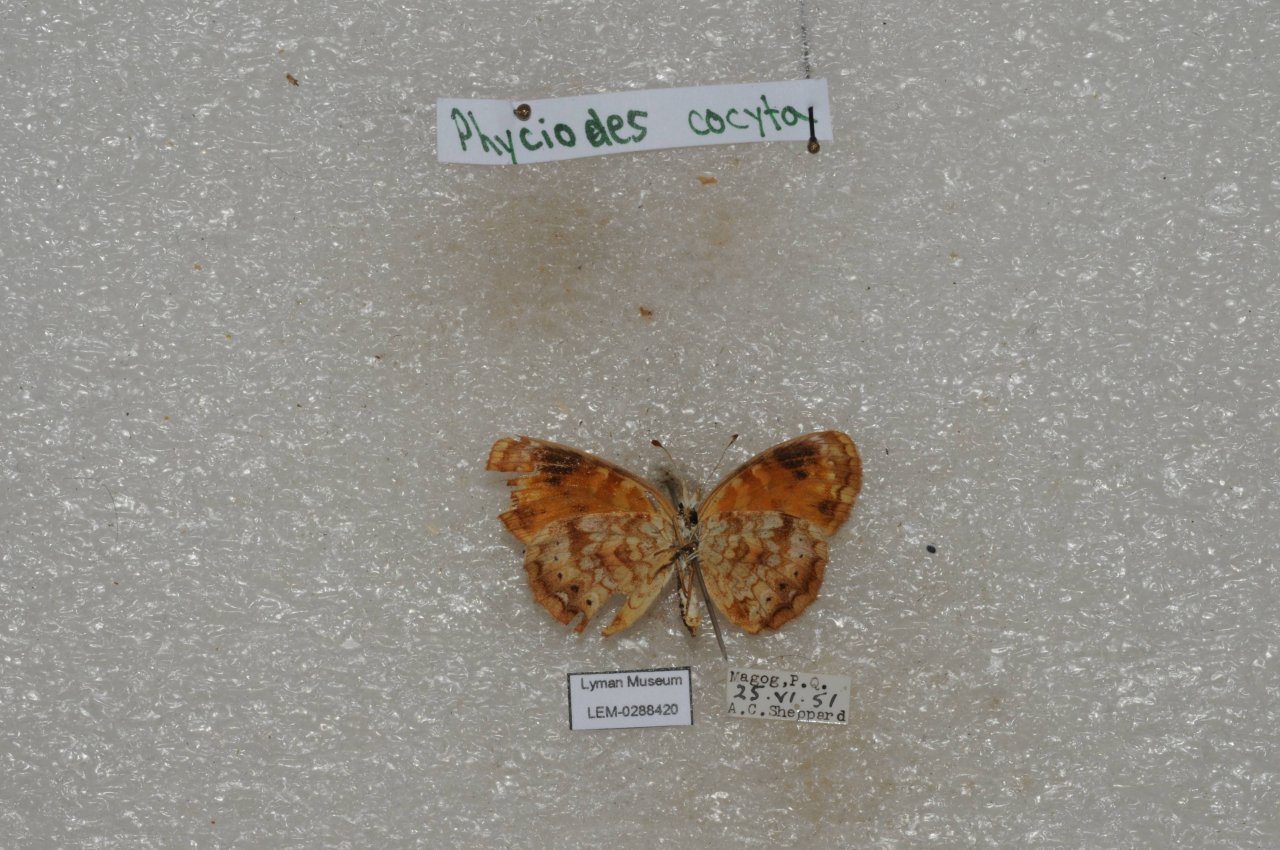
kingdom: Animalia
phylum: Arthropoda
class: Insecta
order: Lepidoptera
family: Nymphalidae
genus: Phyciodes
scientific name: Phyciodes tharos
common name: Northern Crescent
